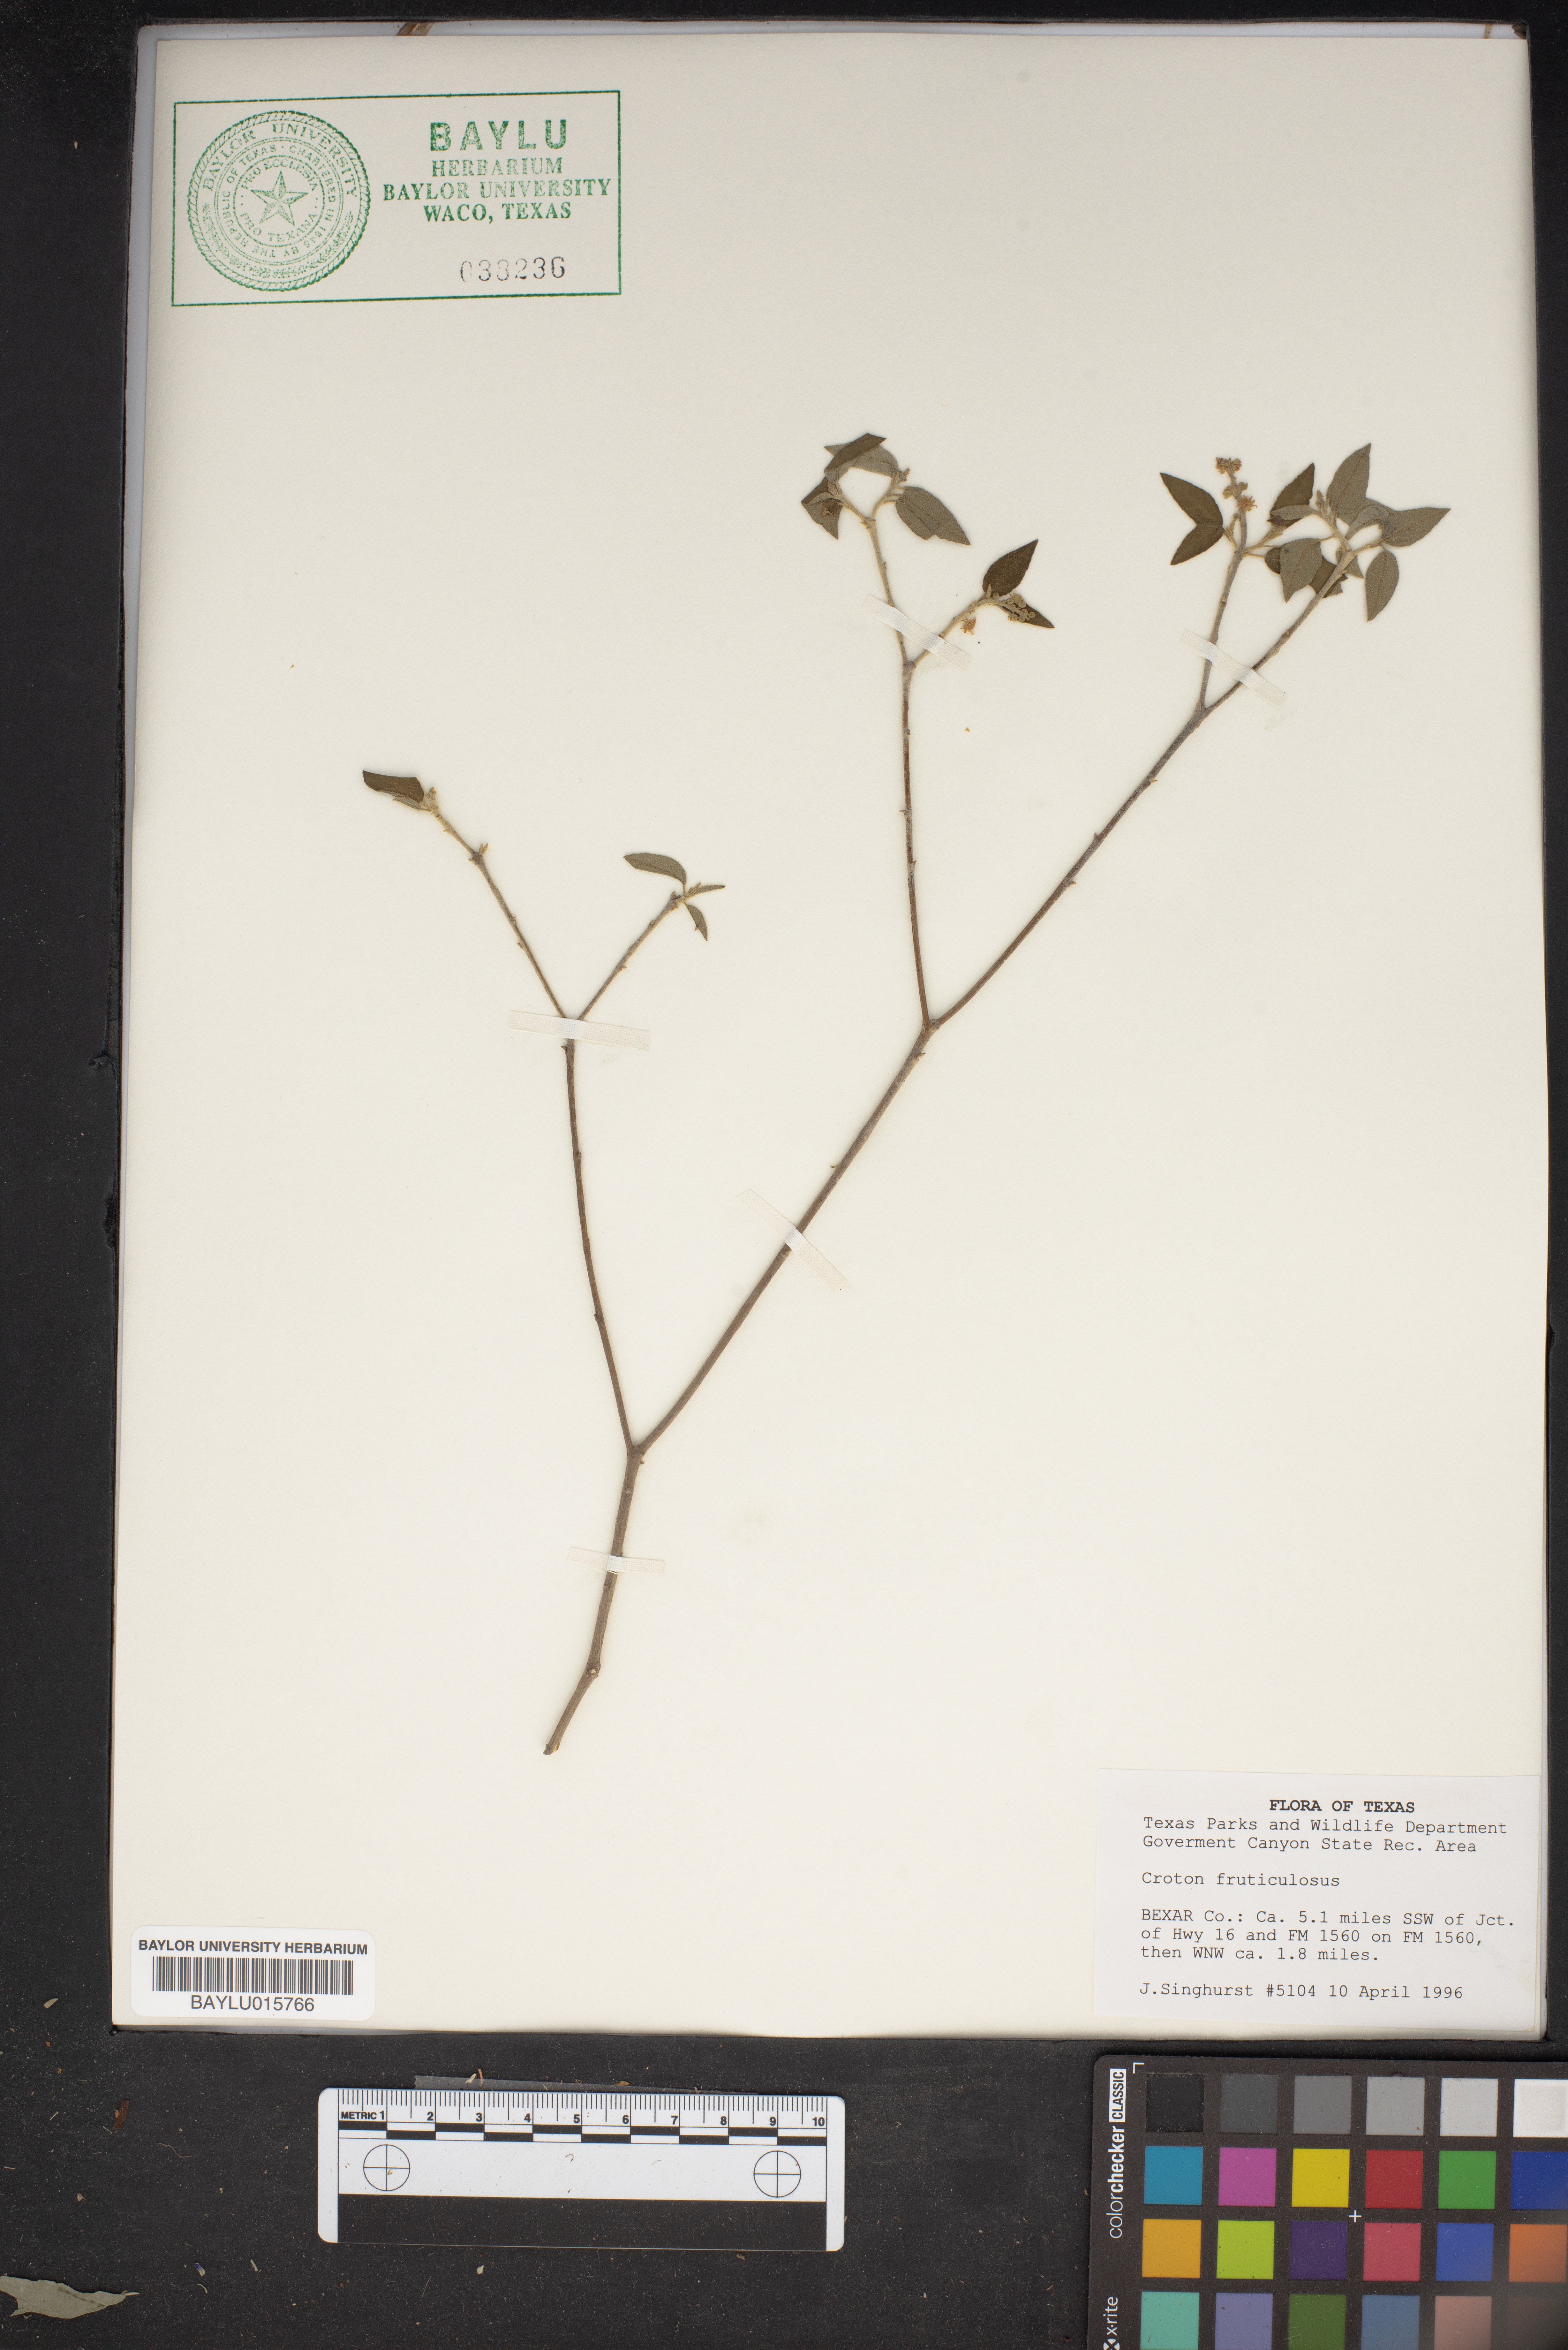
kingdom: Plantae
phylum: Tracheophyta
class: Magnoliopsida
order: Malpighiales
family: Euphorbiaceae
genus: Croton
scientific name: Croton fruticulosus
